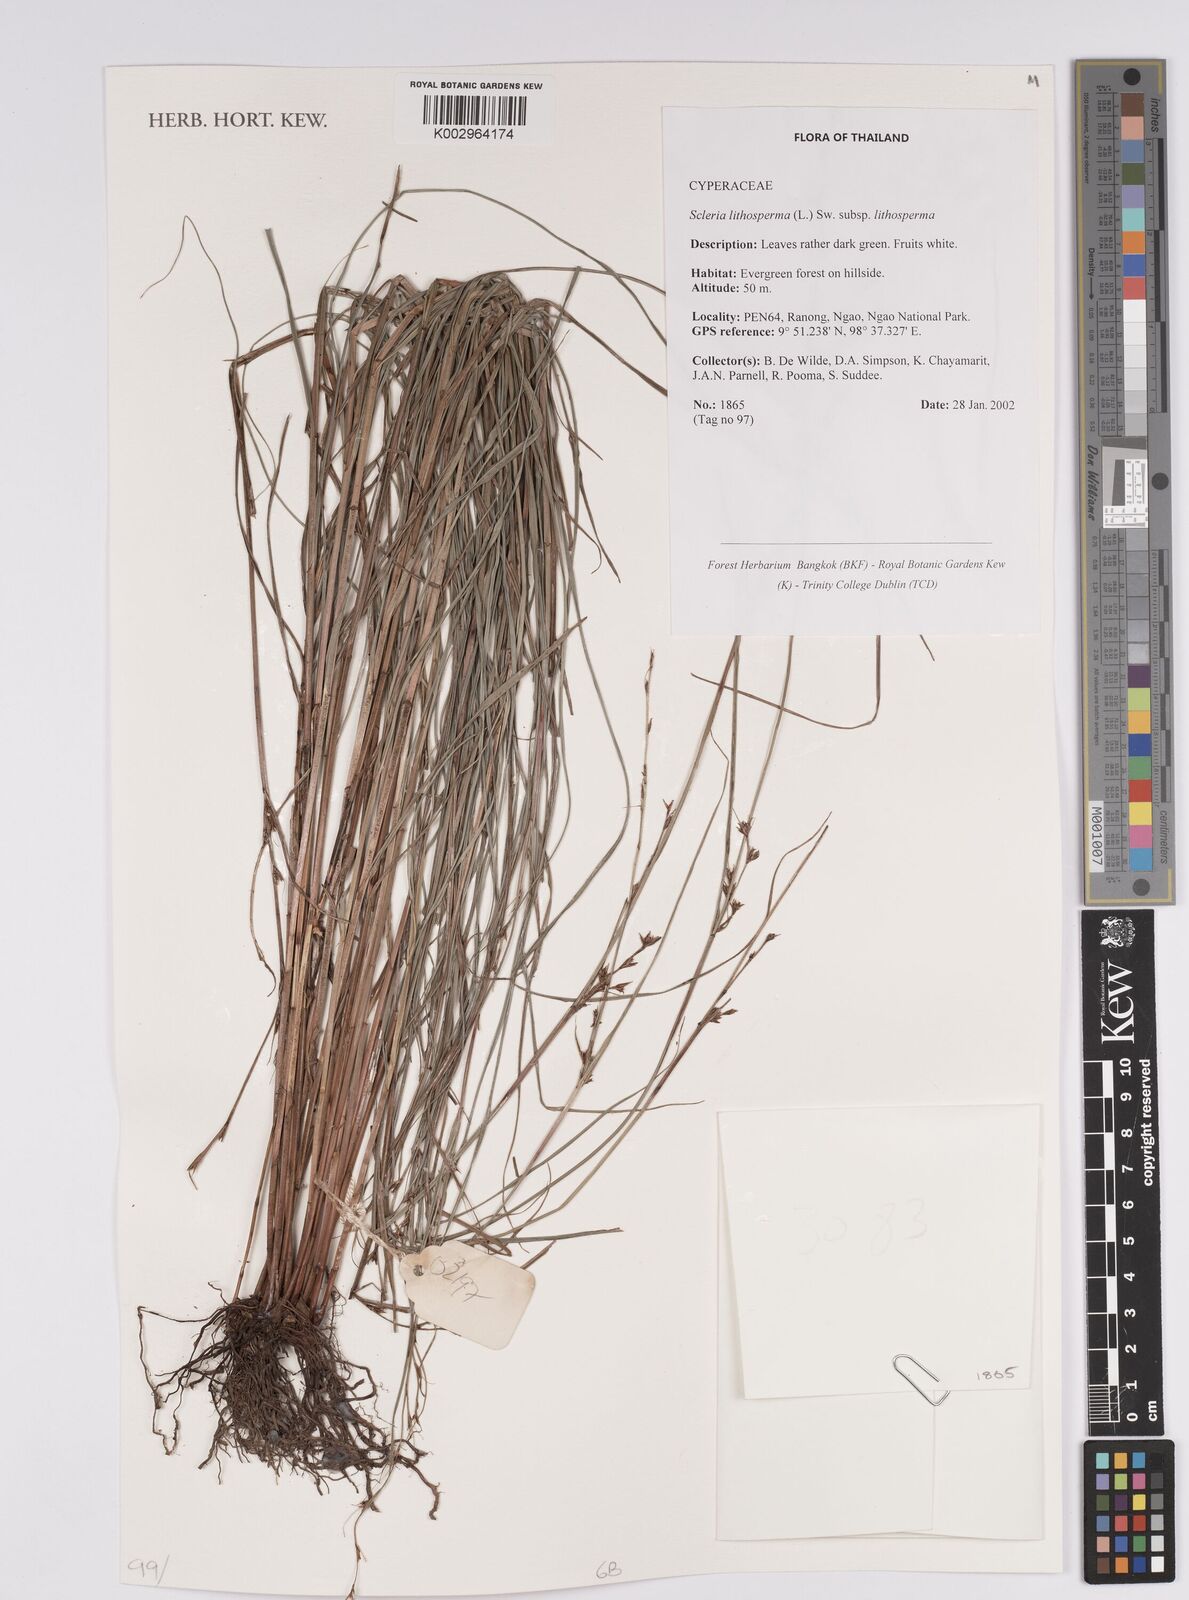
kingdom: Plantae
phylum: Tracheophyta
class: Liliopsida
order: Poales
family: Cyperaceae
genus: Scleria
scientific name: Scleria lithosperma
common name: Florida keys nut-rush
